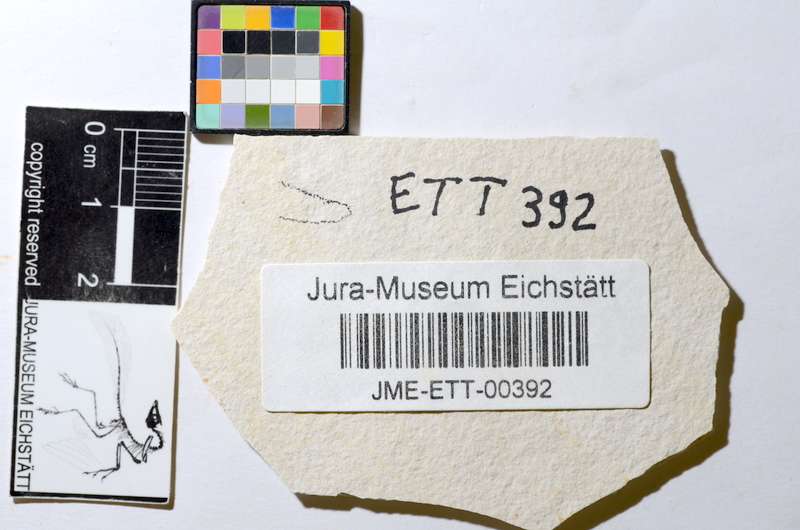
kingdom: Animalia
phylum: Chordata
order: Salmoniformes
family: Orthogonikleithridae
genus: Orthogonikleithrus
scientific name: Orthogonikleithrus hoelli
